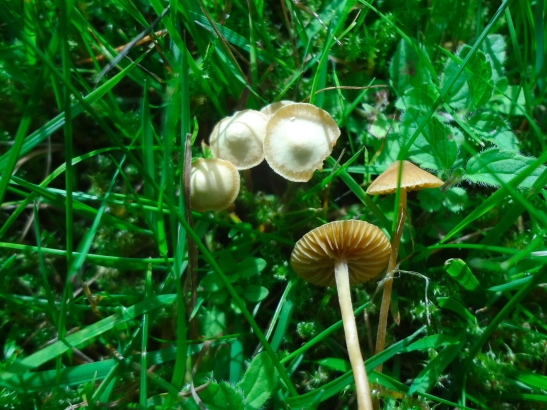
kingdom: Fungi
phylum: Basidiomycota
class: Agaricomycetes
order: Agaricales
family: Hymenogastraceae
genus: Galerina
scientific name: Galerina vittiformis
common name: Hairy leg bell
